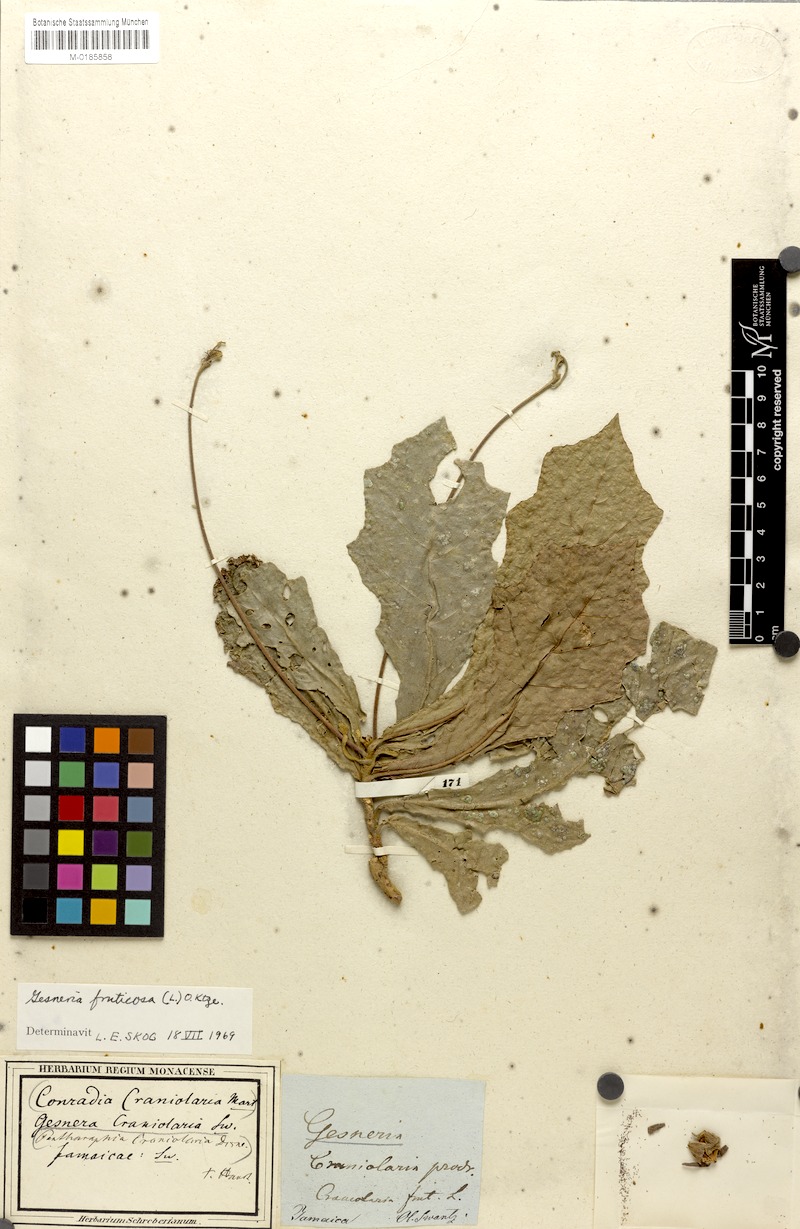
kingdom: Plantae
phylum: Tracheophyta
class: Magnoliopsida
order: Lamiales
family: Gesneriaceae
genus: Gesneria
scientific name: Gesneria fruticosa
